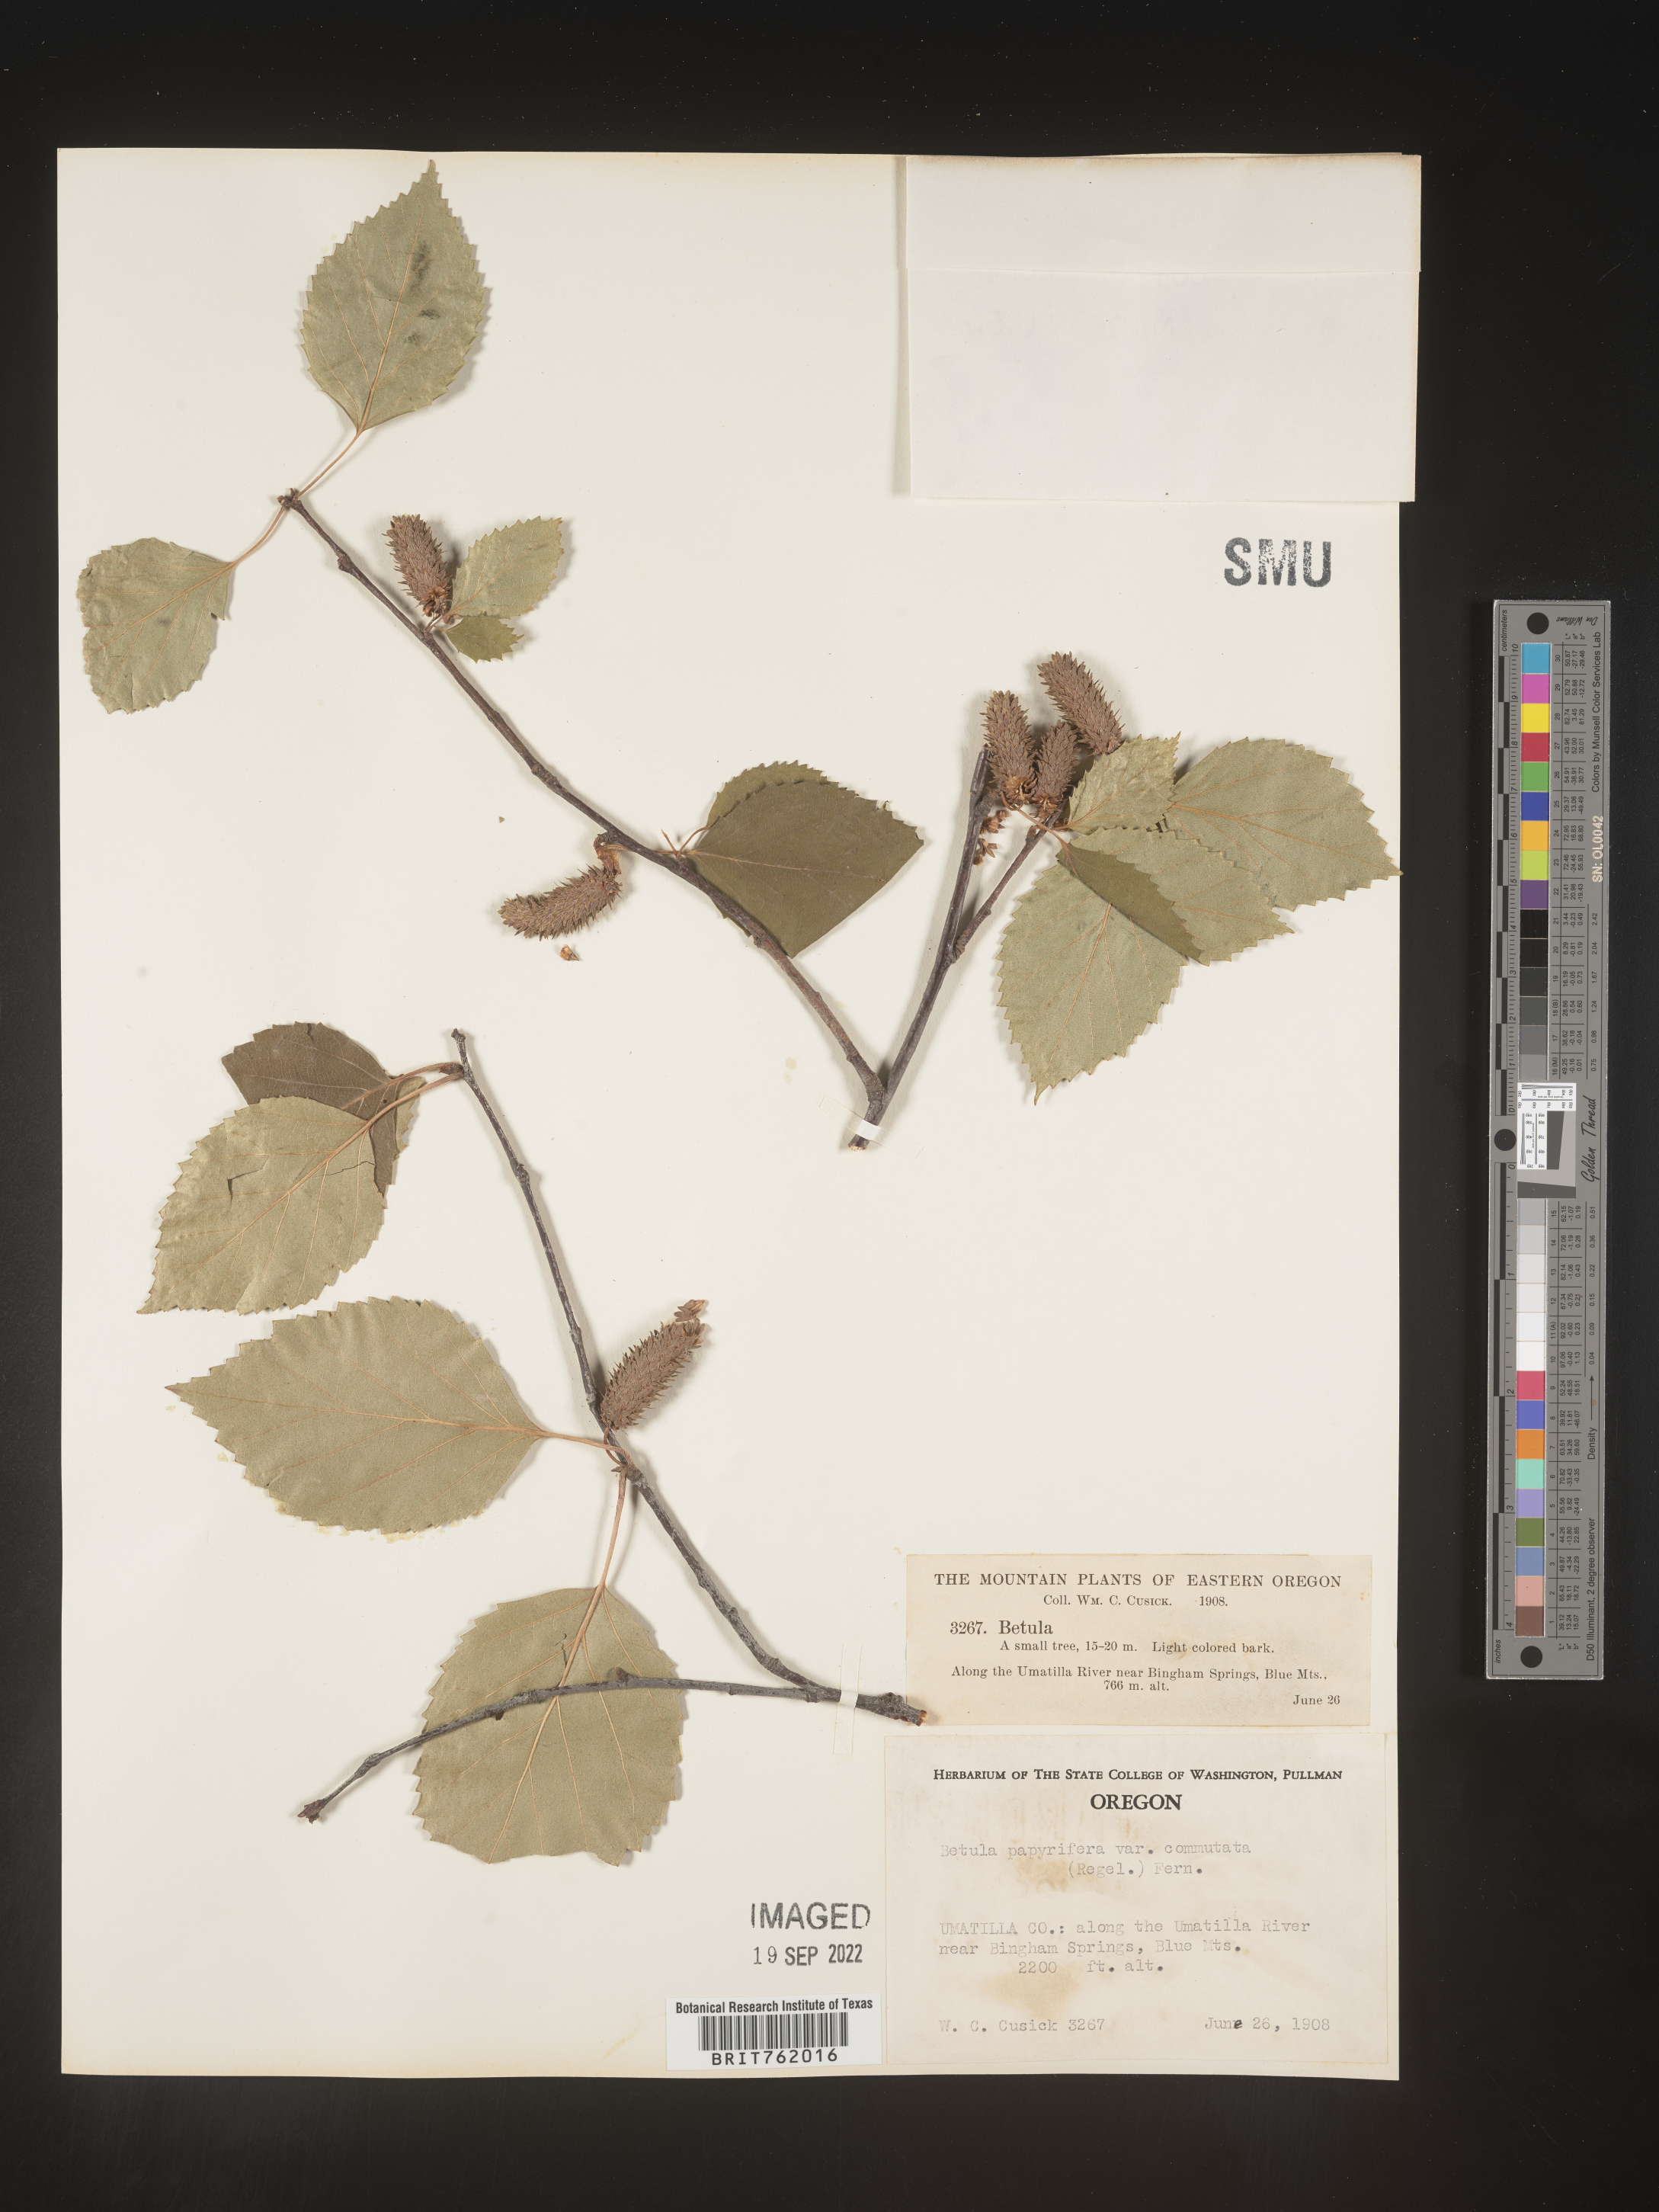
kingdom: Plantae
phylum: Tracheophyta
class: Magnoliopsida
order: Fagales
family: Betulaceae
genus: Betula
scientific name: Betula papyrifera
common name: Paper birch
